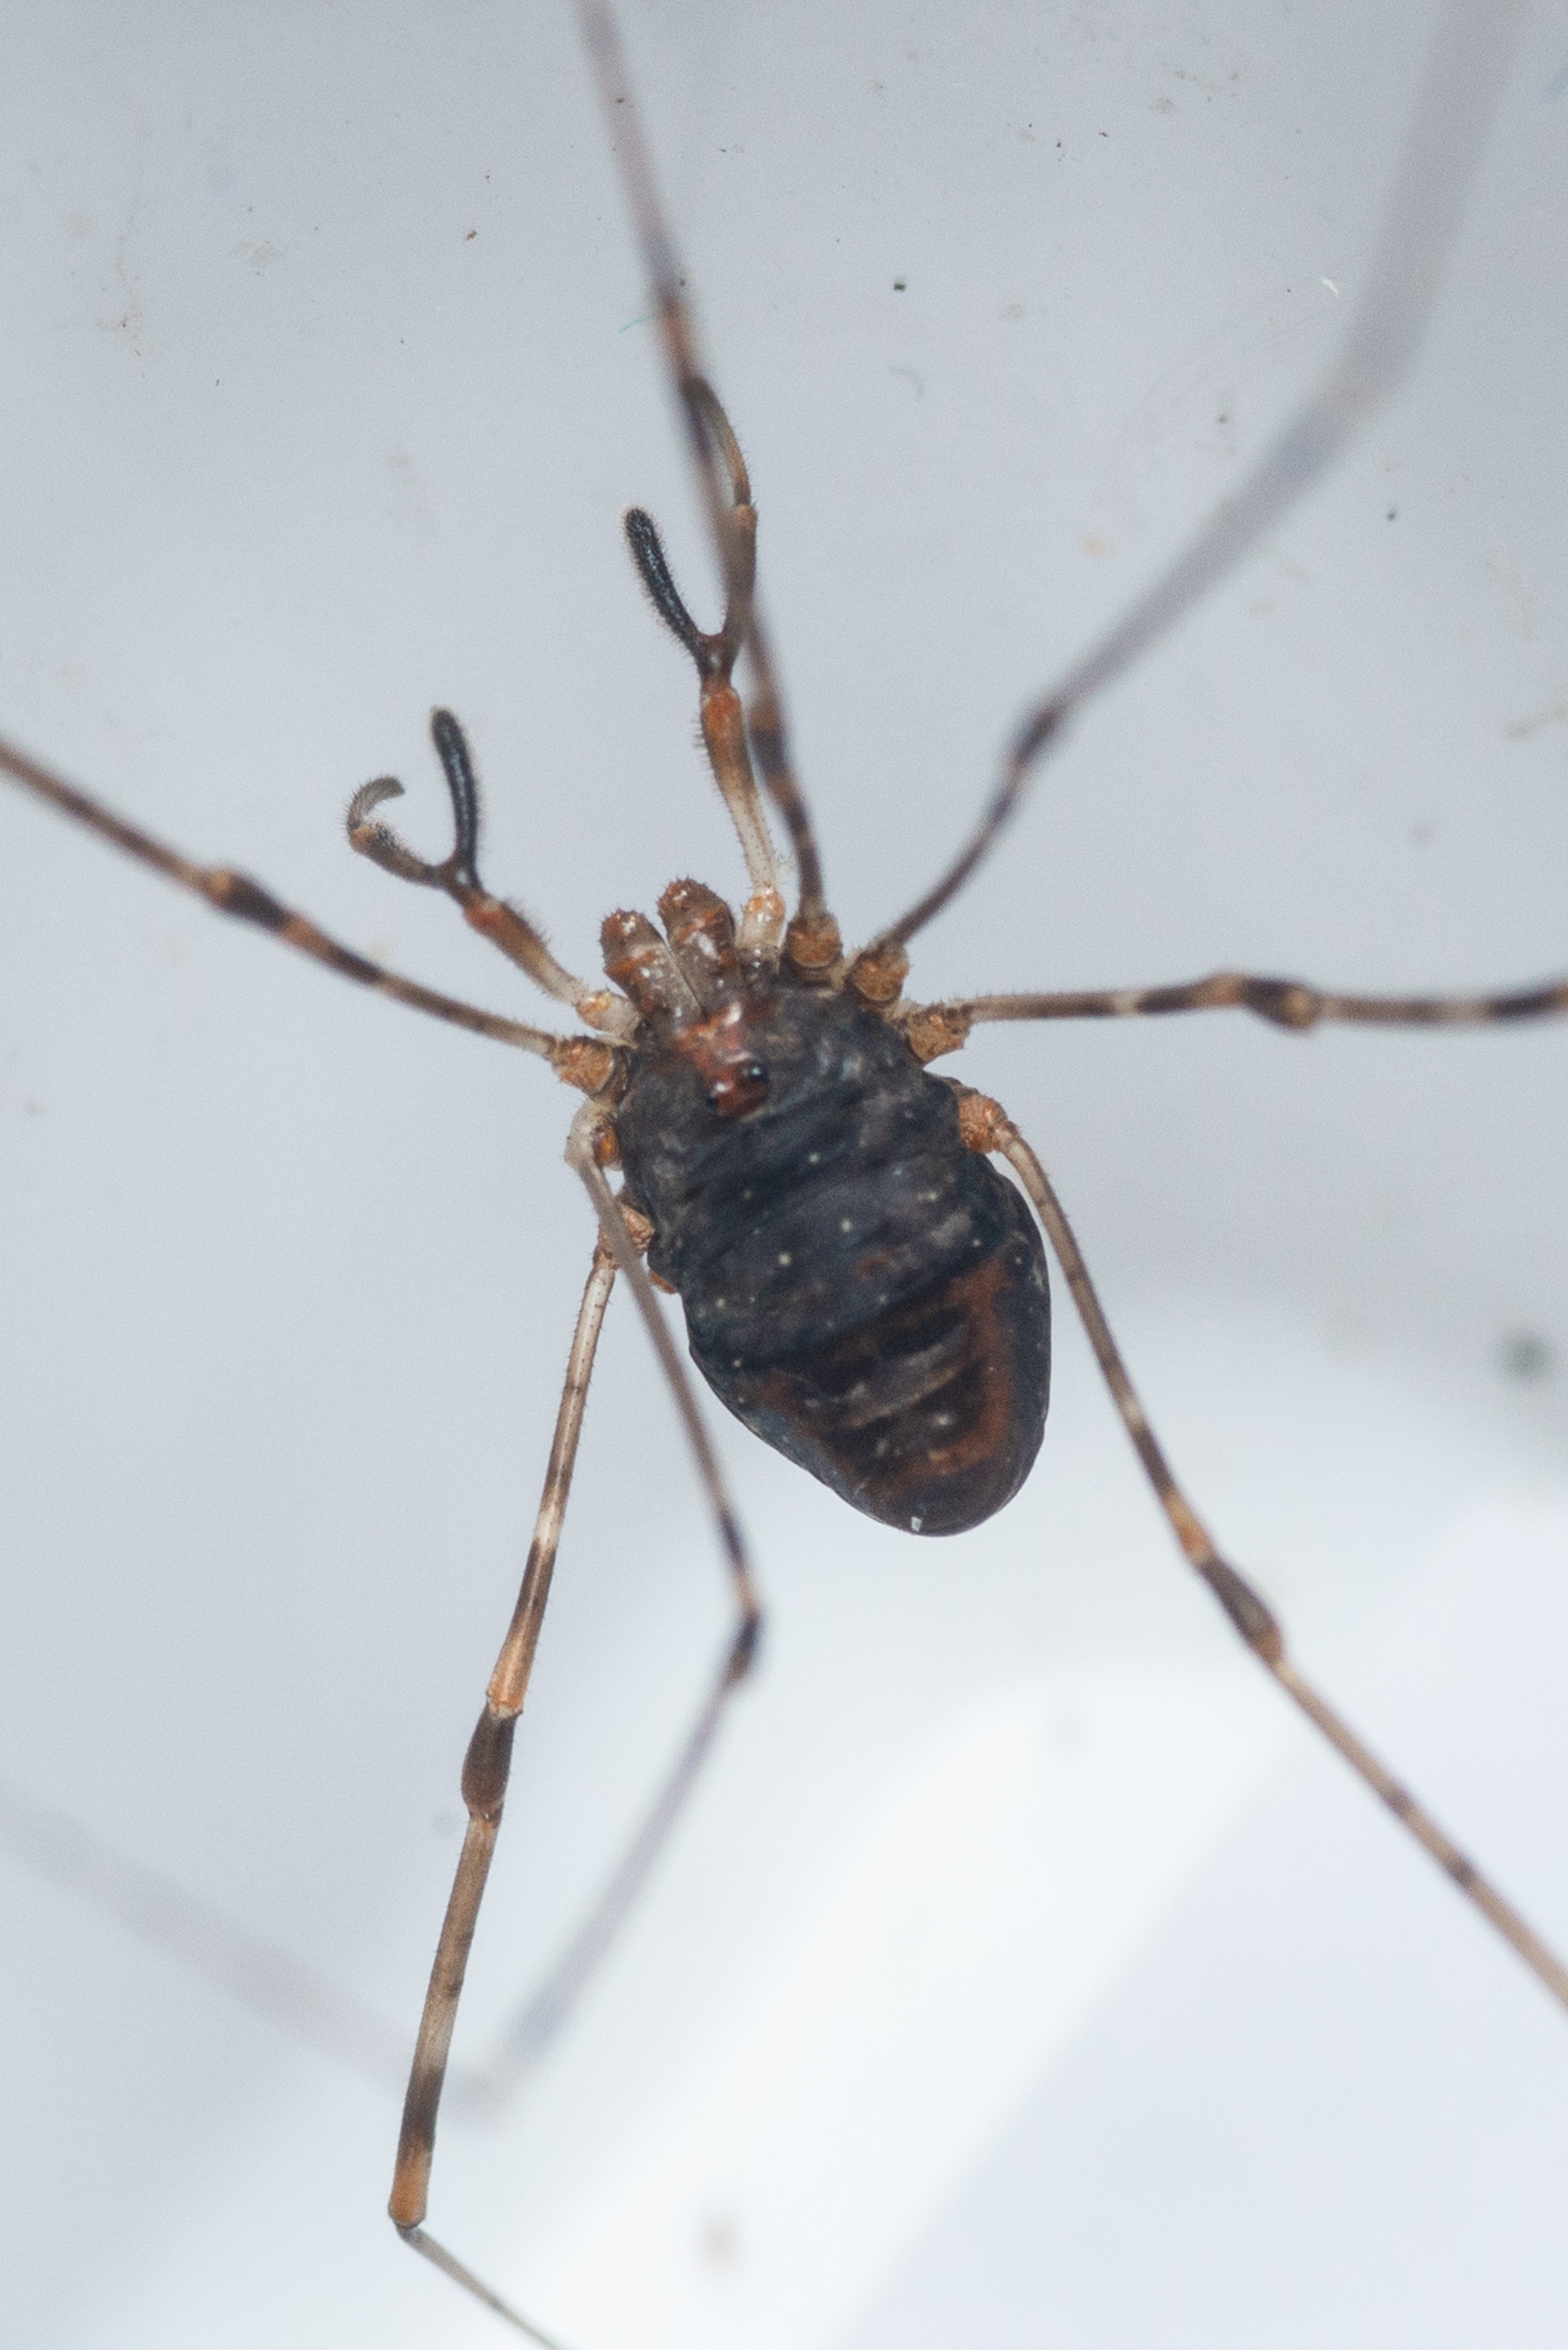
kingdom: Animalia
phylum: Arthropoda
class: Arachnida
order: Opiliones
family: Phalangiidae
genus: Dicranopalpus
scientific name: Dicranopalpus ramosus
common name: Gaffelmejer
